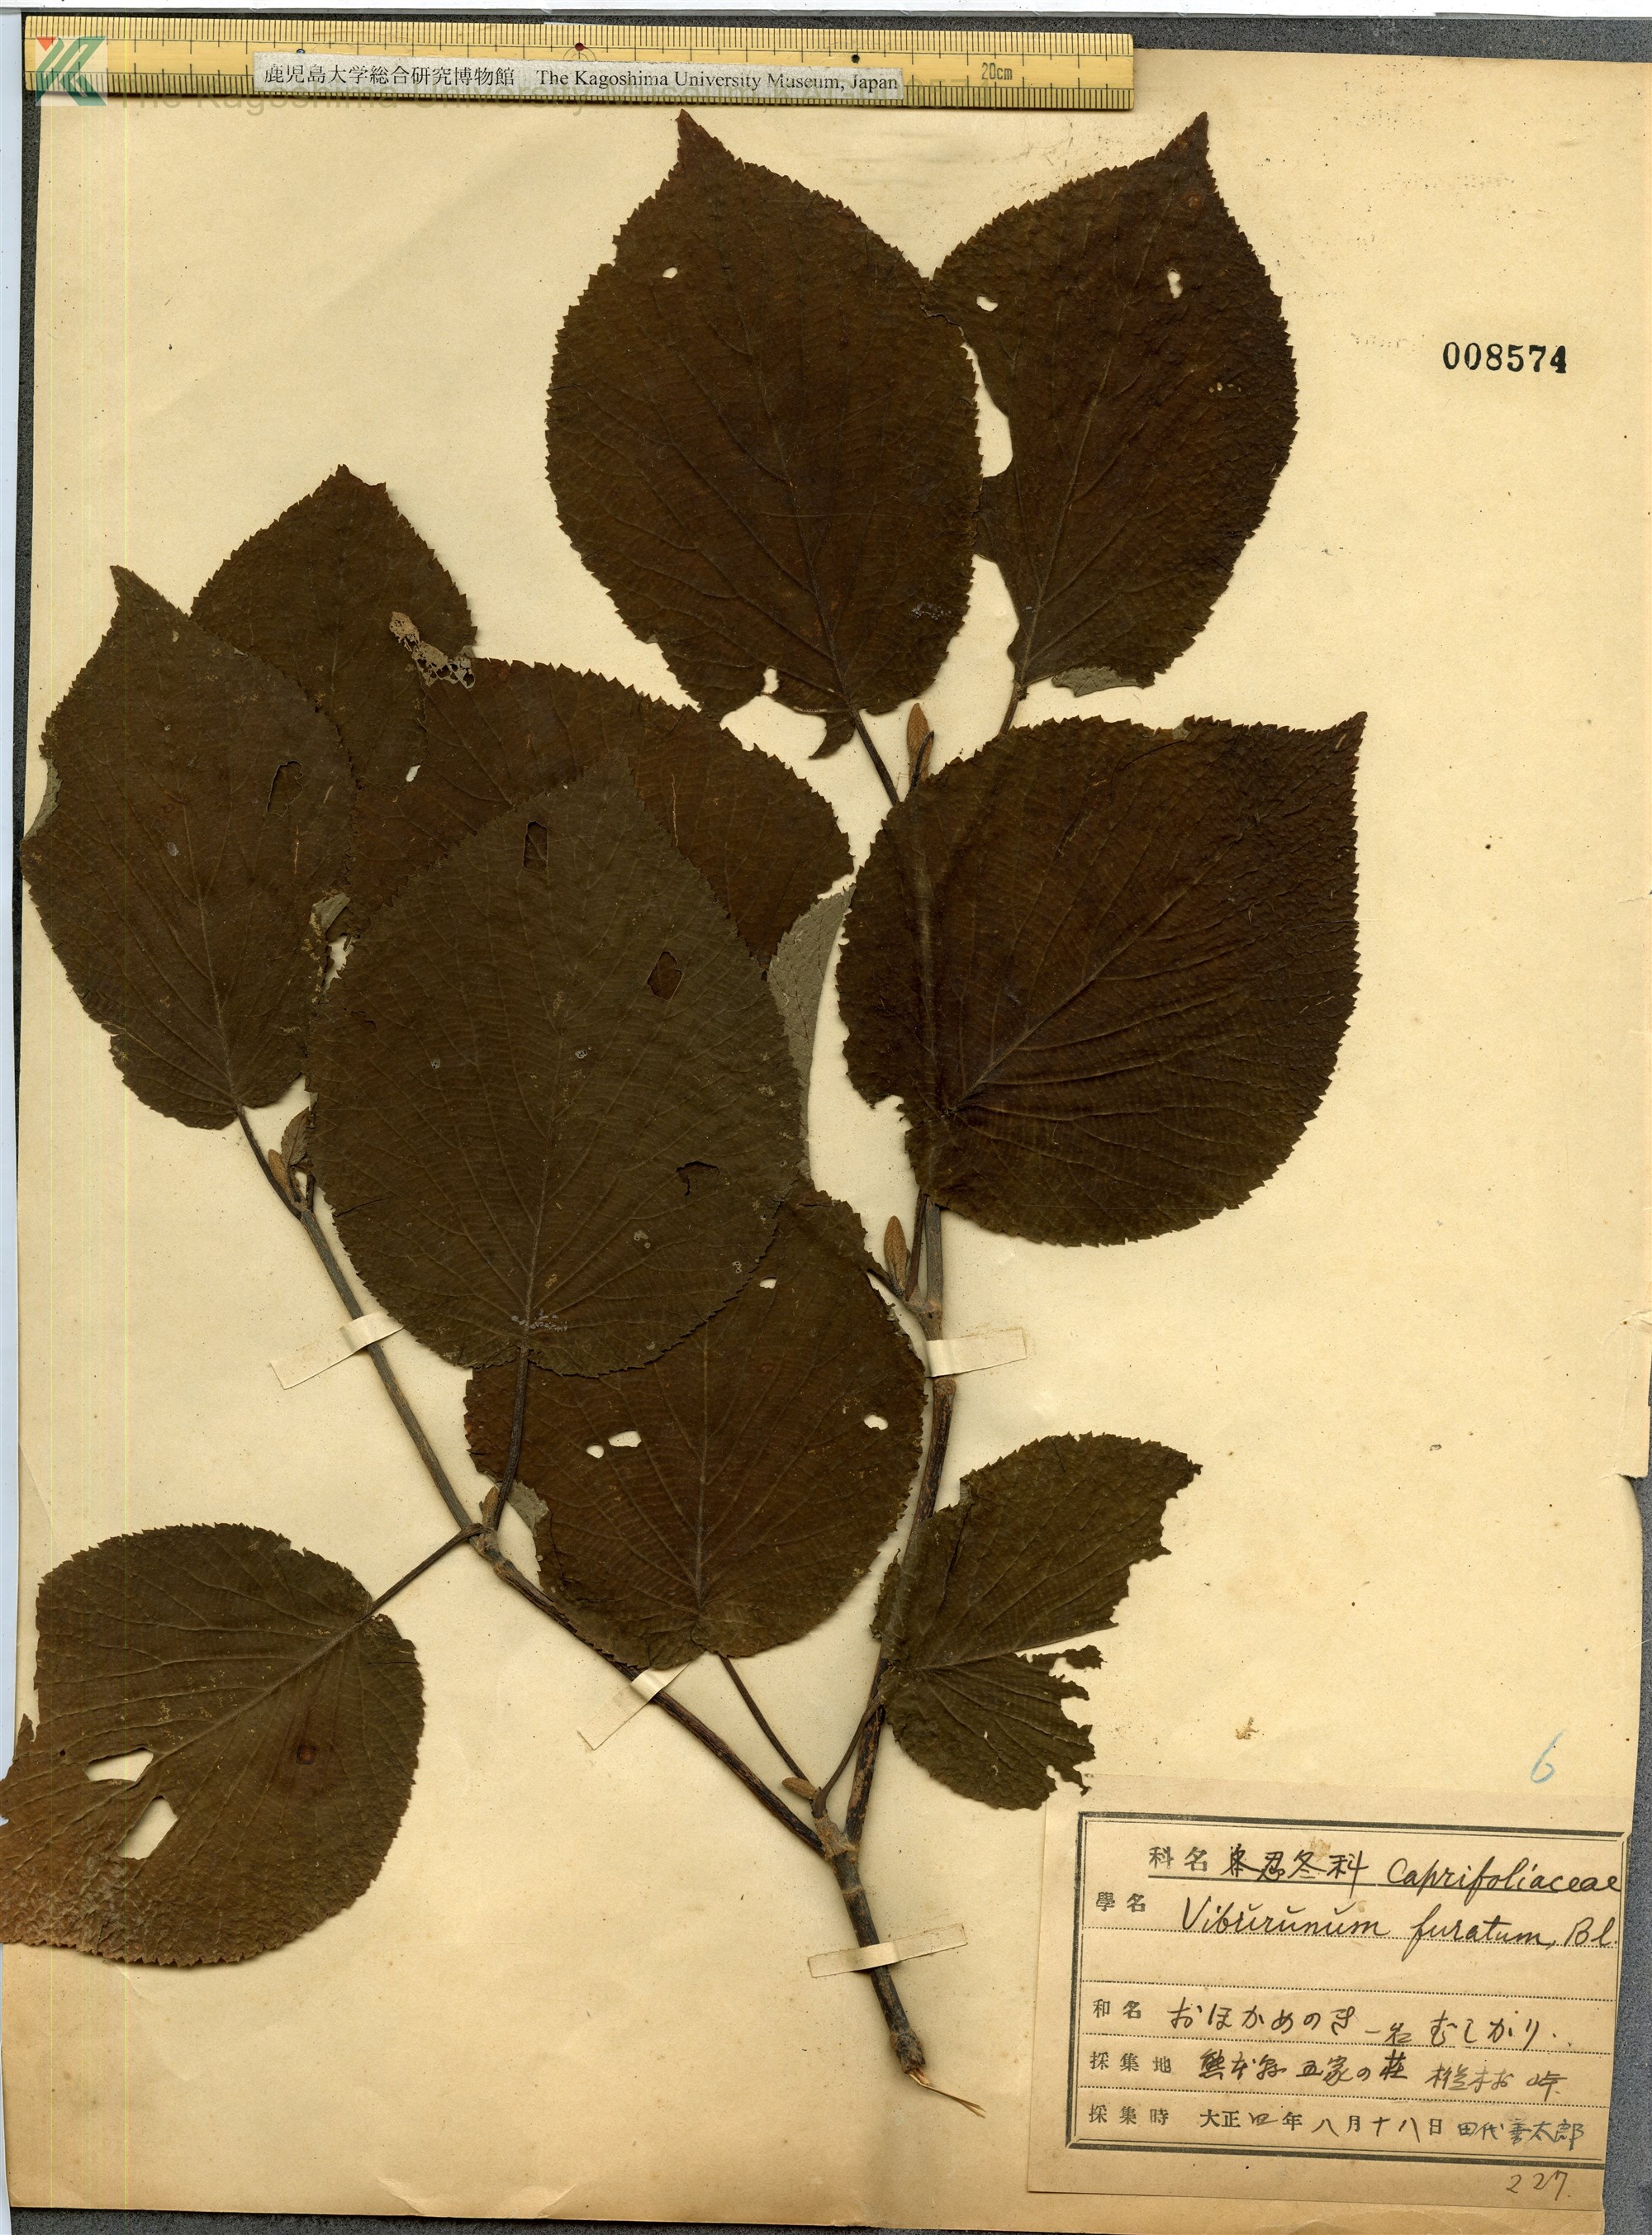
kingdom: Plantae
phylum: Tracheophyta
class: Magnoliopsida
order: Dipsacales
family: Viburnaceae
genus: Viburnum
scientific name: Viburnum furcatum
